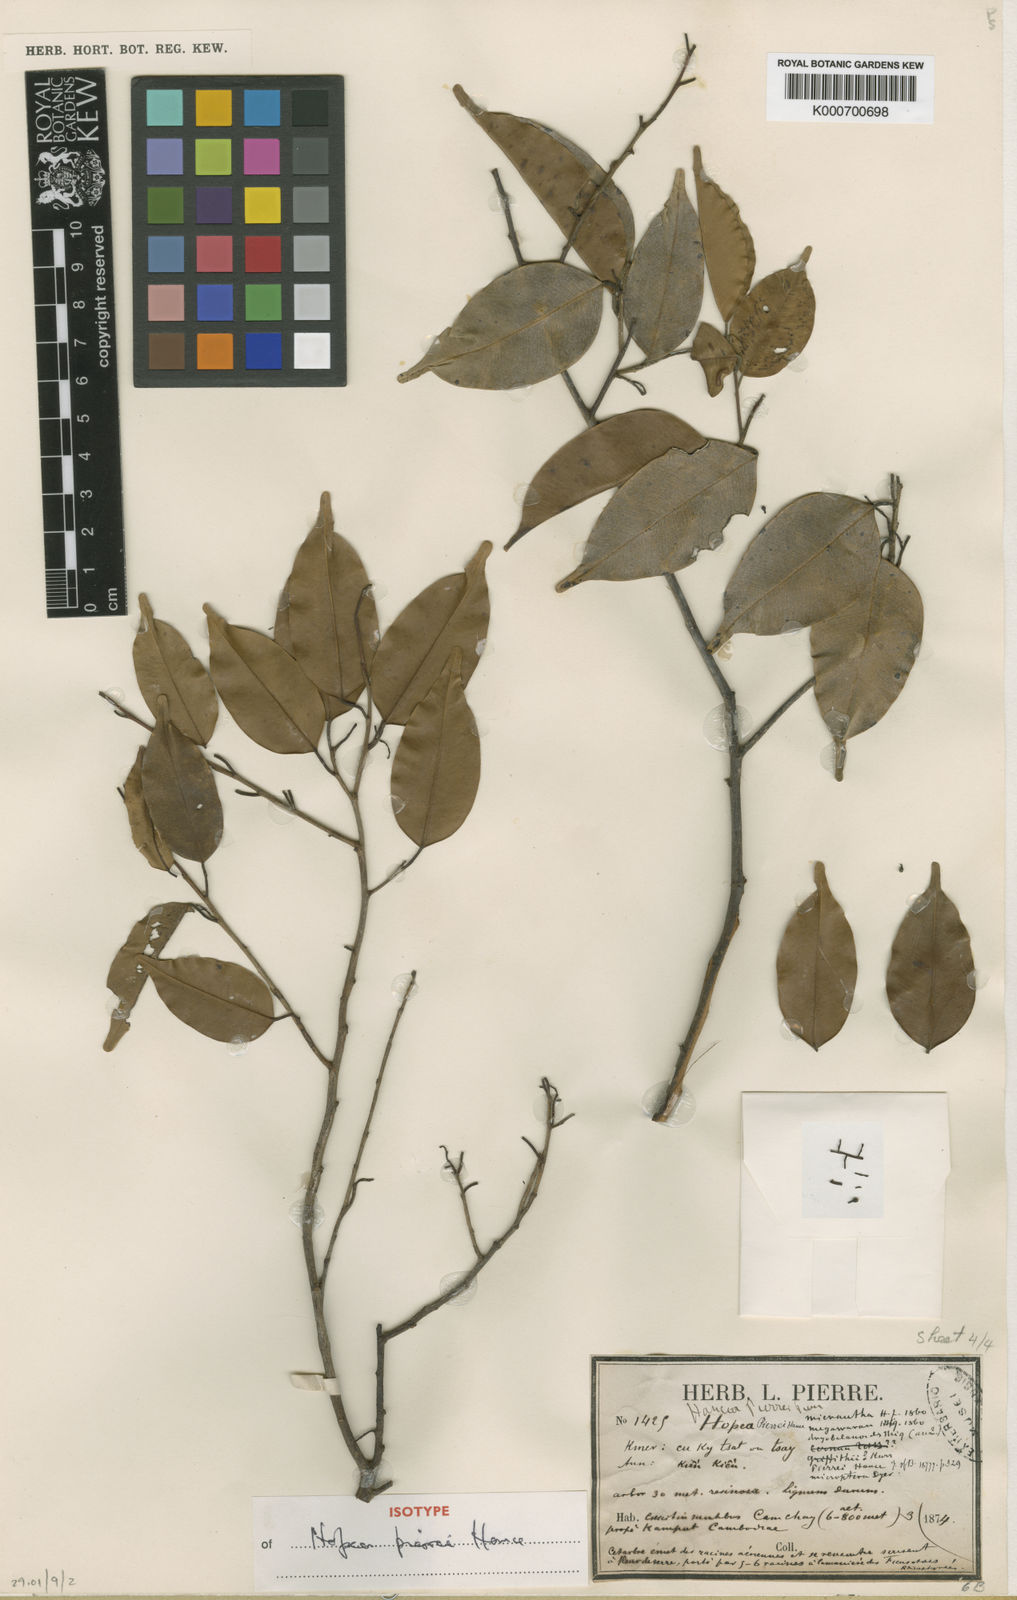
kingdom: Plantae
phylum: Tracheophyta
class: Magnoliopsida
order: Malvales
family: Dipterocarpaceae
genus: Hopea
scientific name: Hopea pierrei
